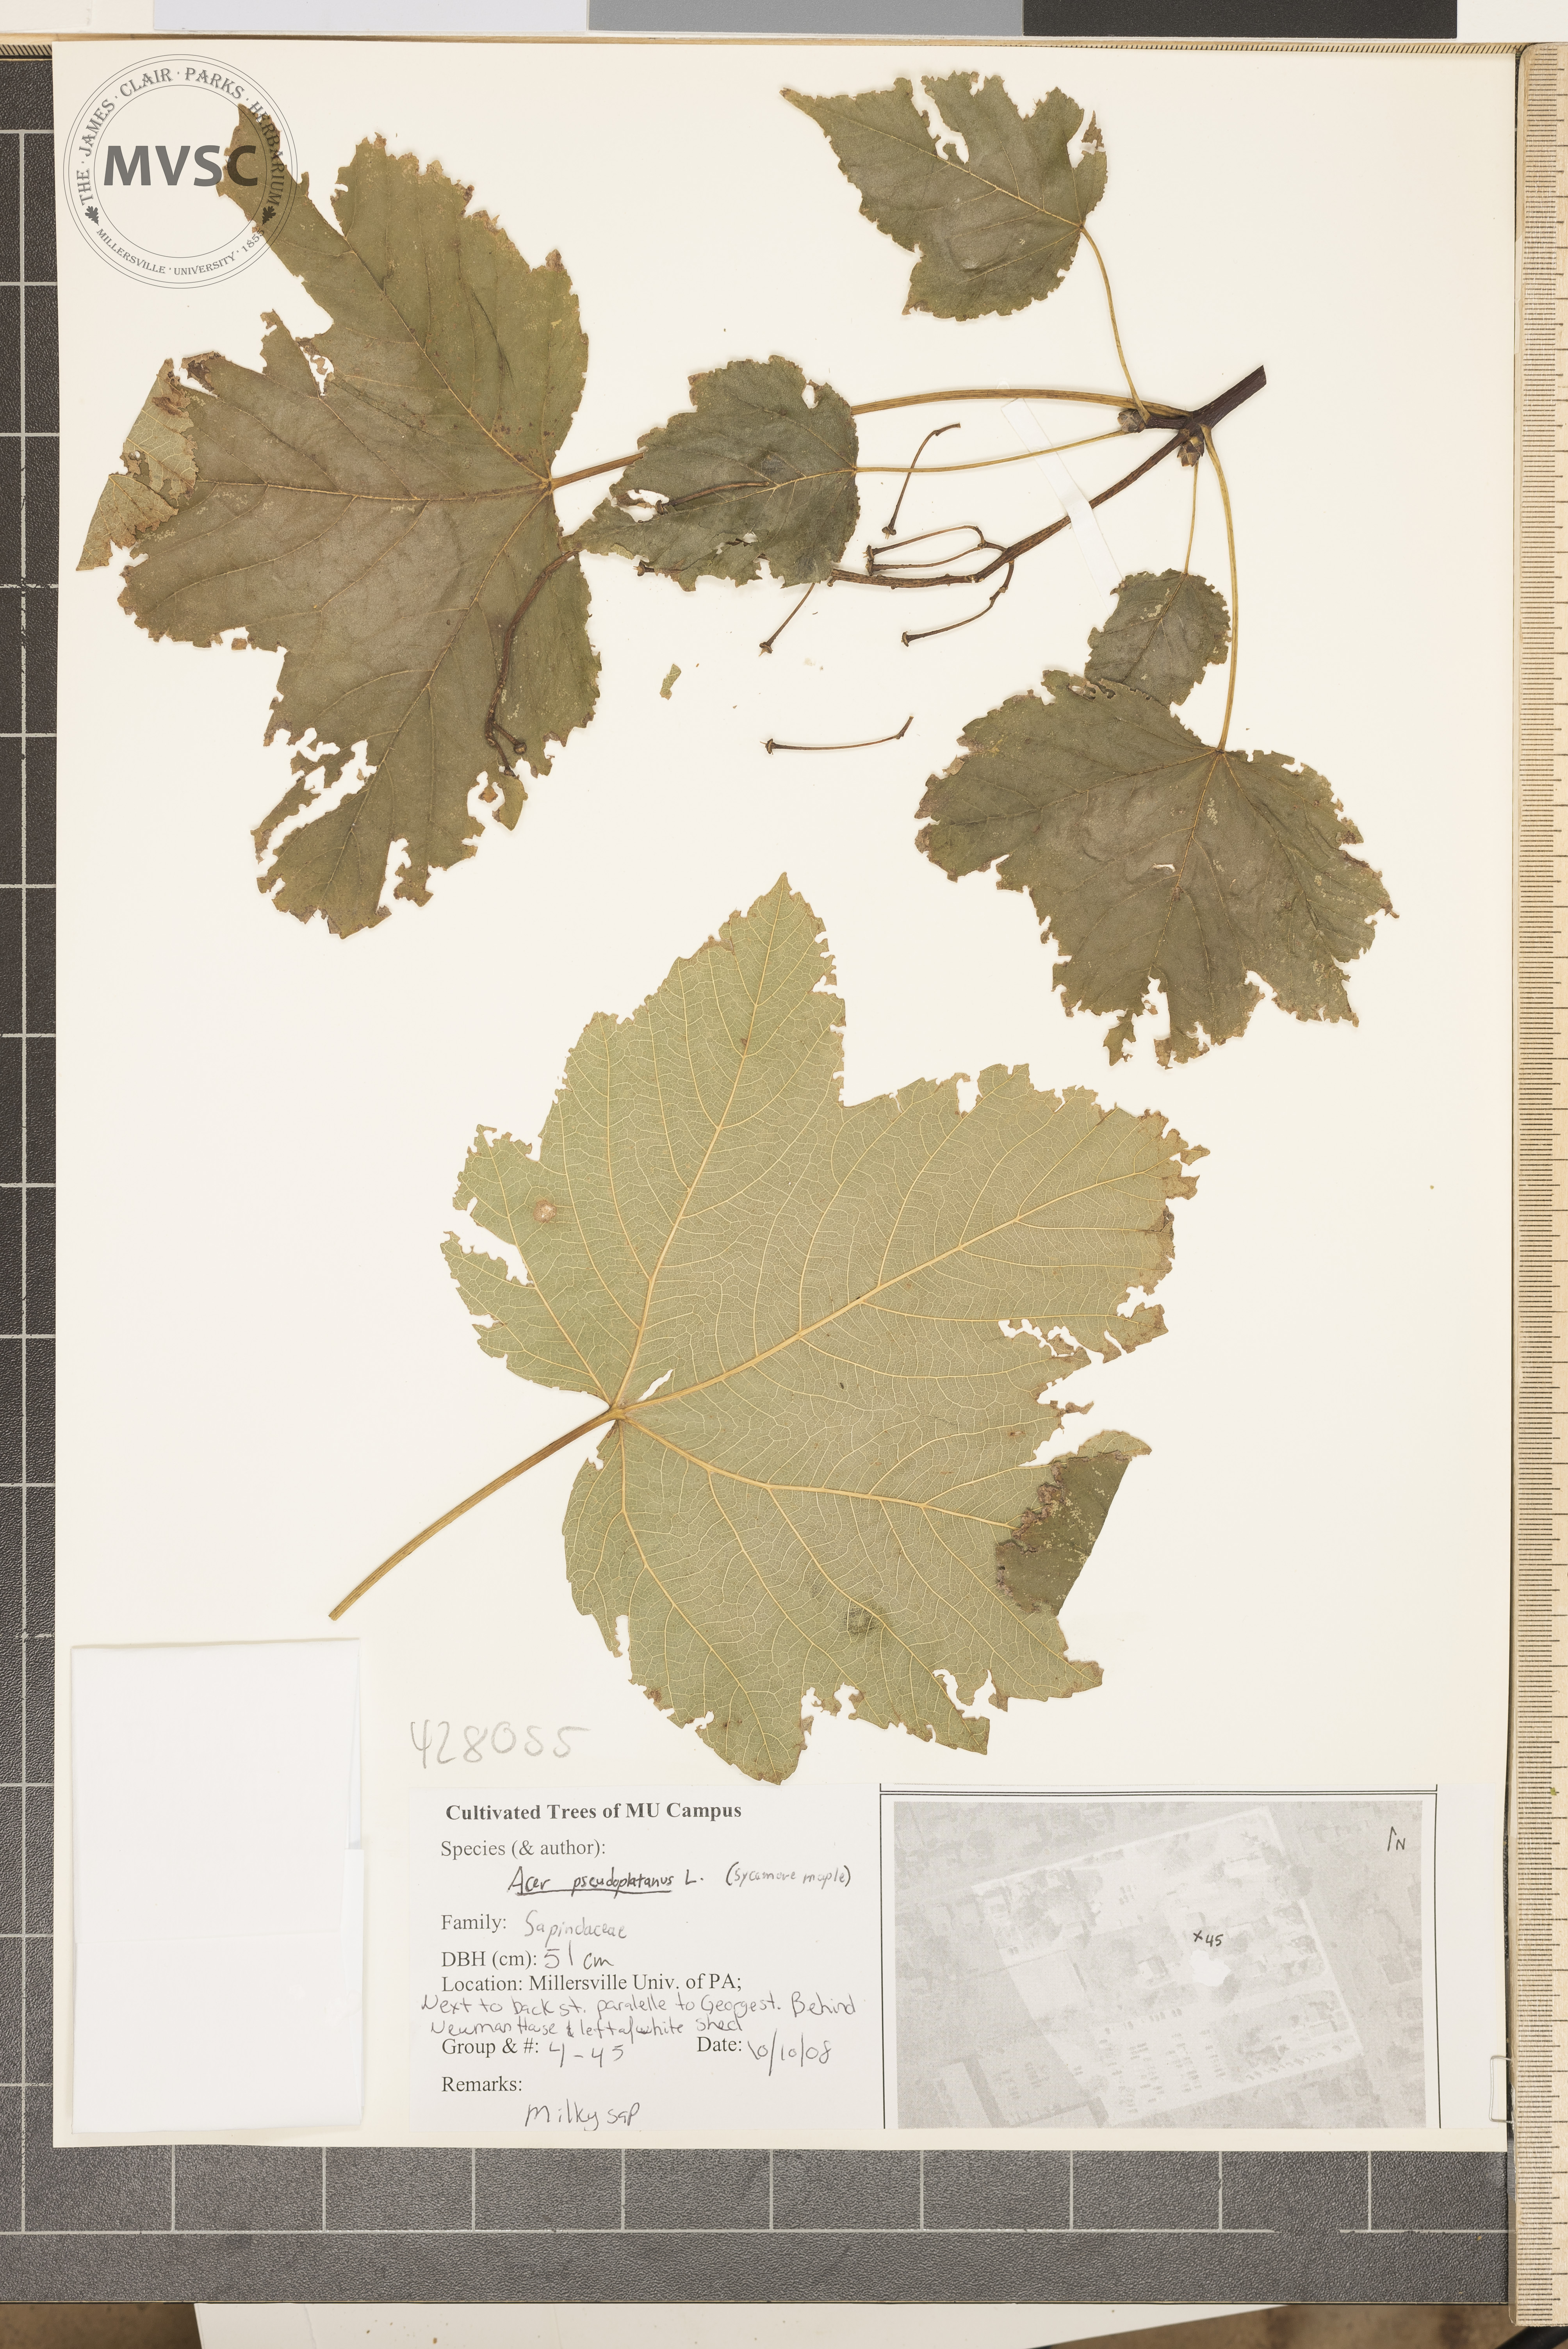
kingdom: Plantae
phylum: Tracheophyta
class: Magnoliopsida
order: Sapindales
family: Sapindaceae
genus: Acer
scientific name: Acer pseudoplatanus
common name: Sycamore Maple
